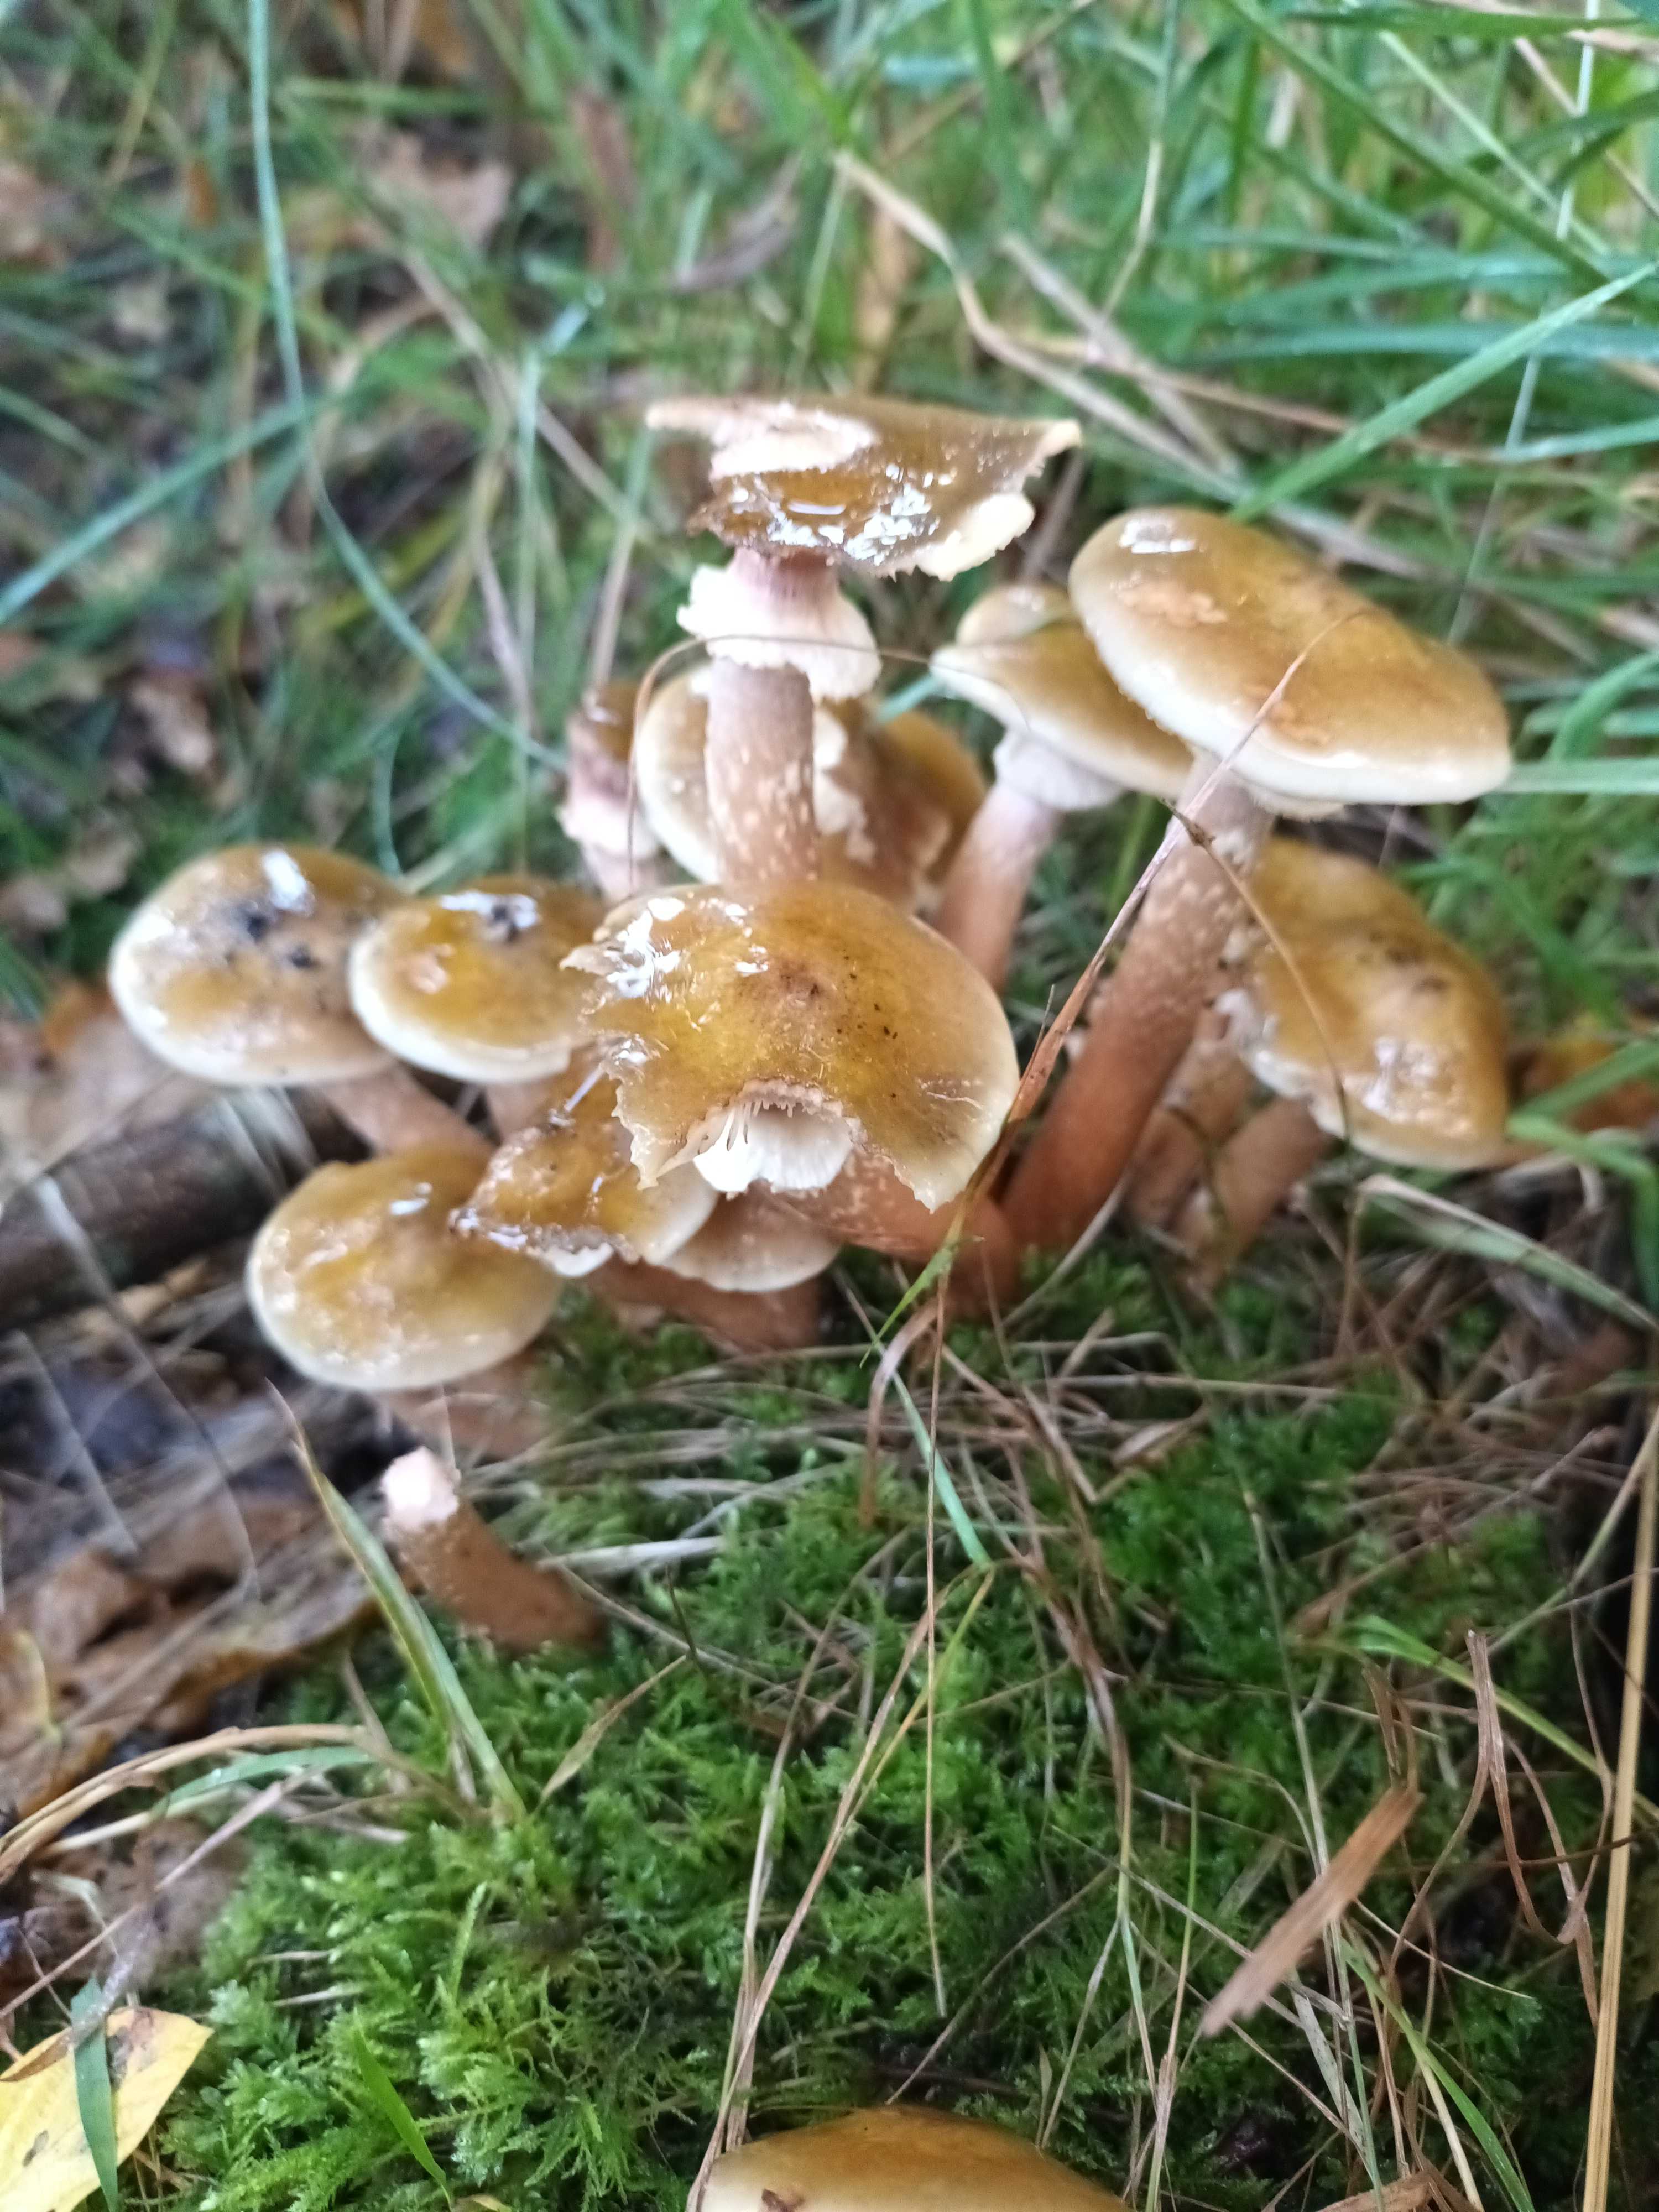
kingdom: Fungi
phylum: Basidiomycota
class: Agaricomycetes
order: Agaricales
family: Physalacriaceae
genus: Armillaria
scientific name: Armillaria mellea
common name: ægte honningsvamp
